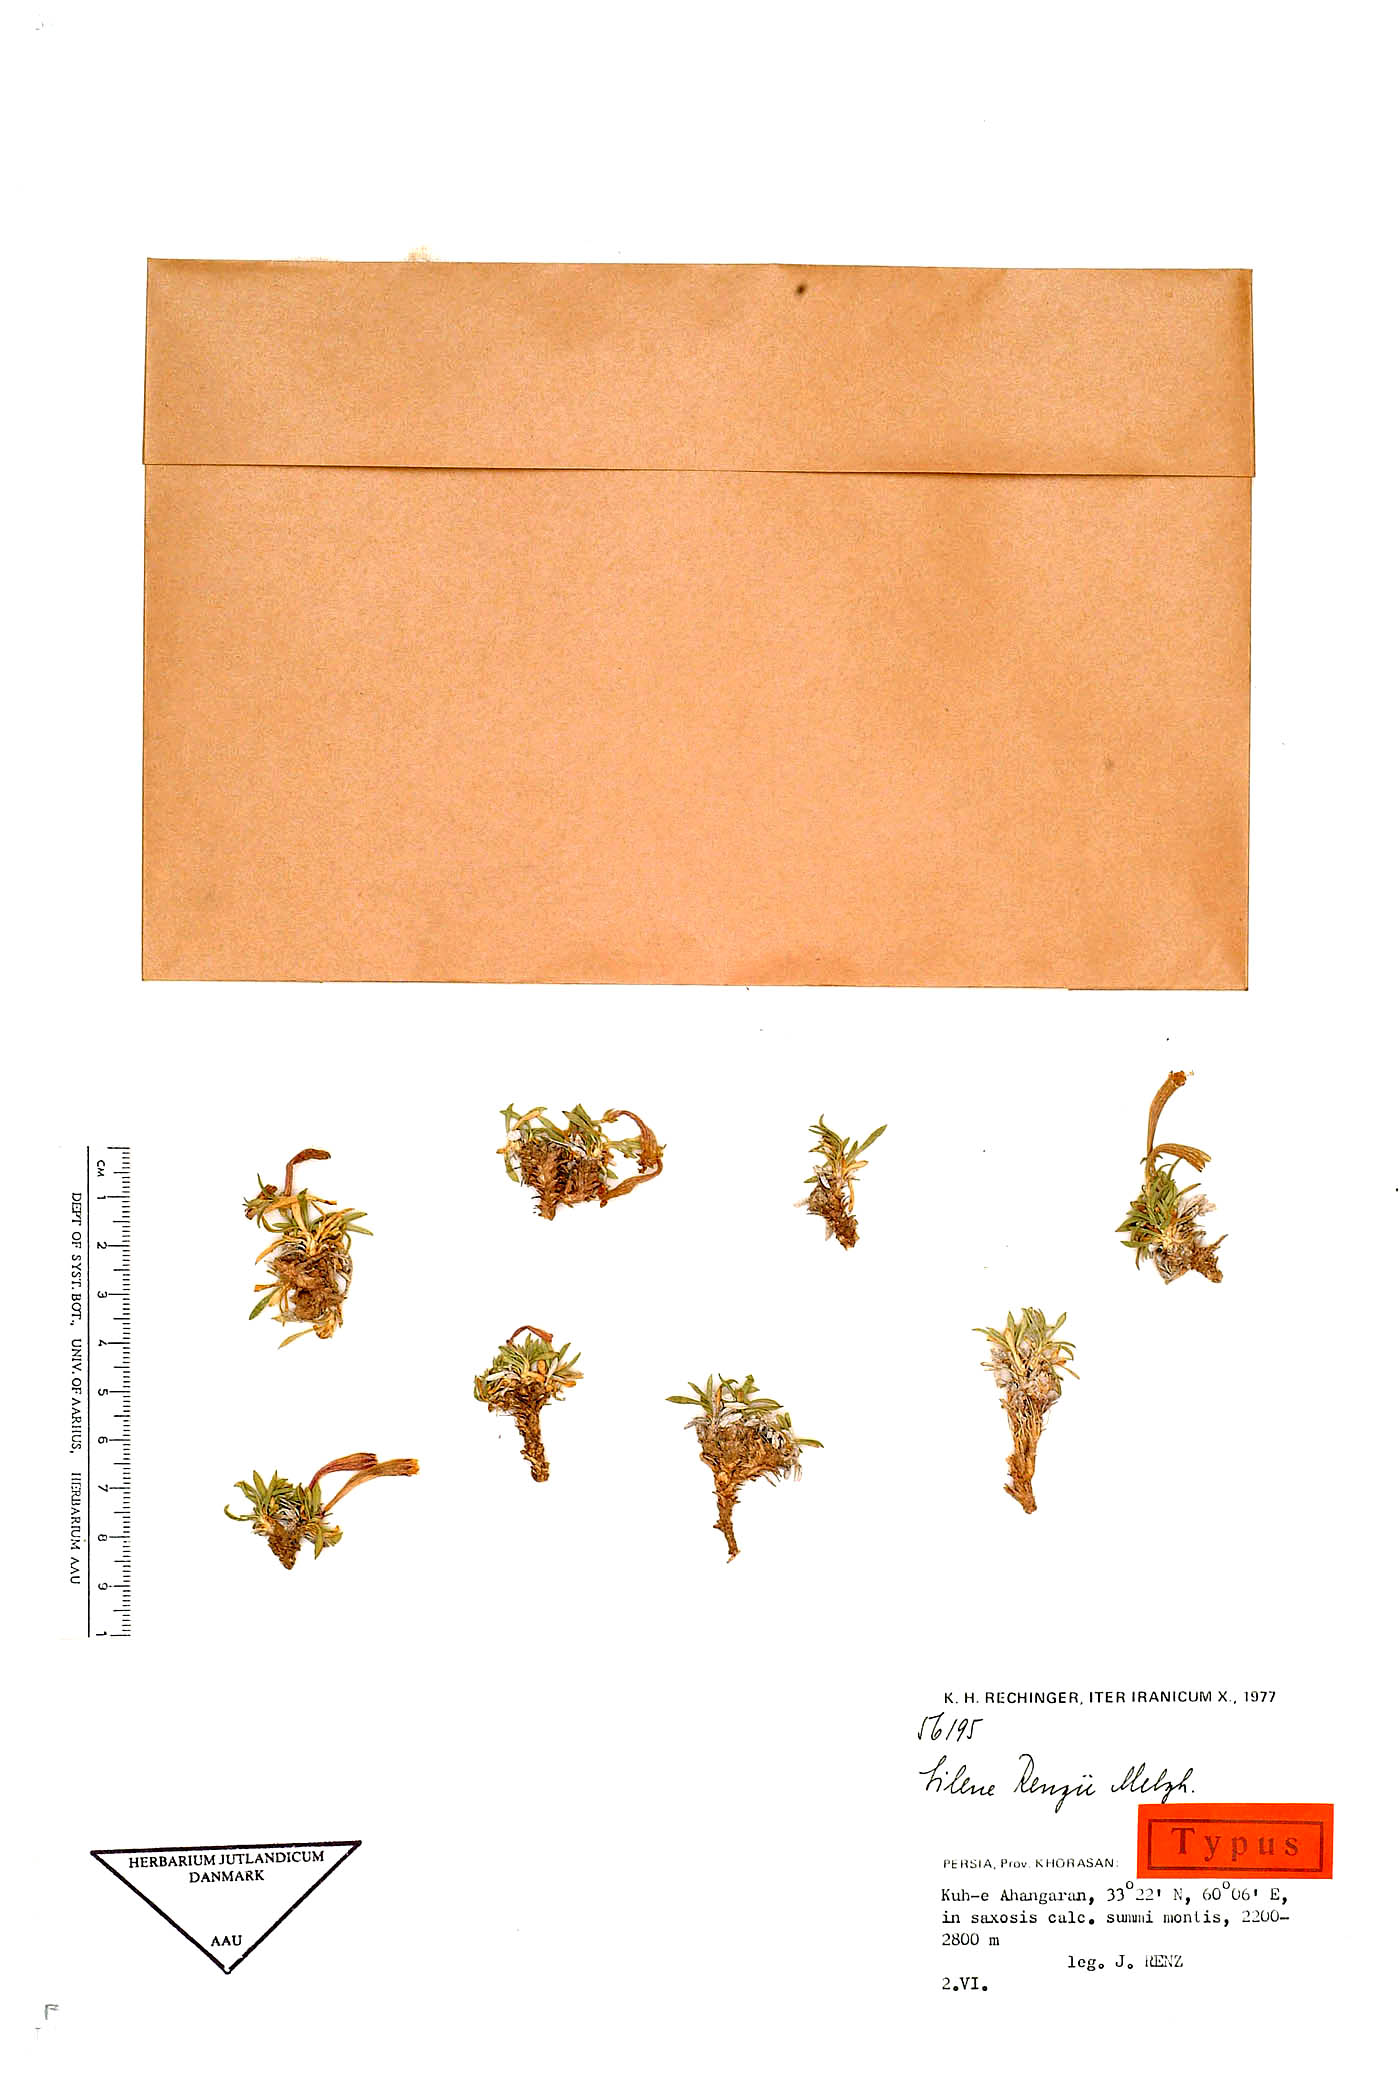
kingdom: Plantae
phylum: Tracheophyta
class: Magnoliopsida
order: Caryophyllales
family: Caryophyllaceae
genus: Silene
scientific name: Silene renzii
